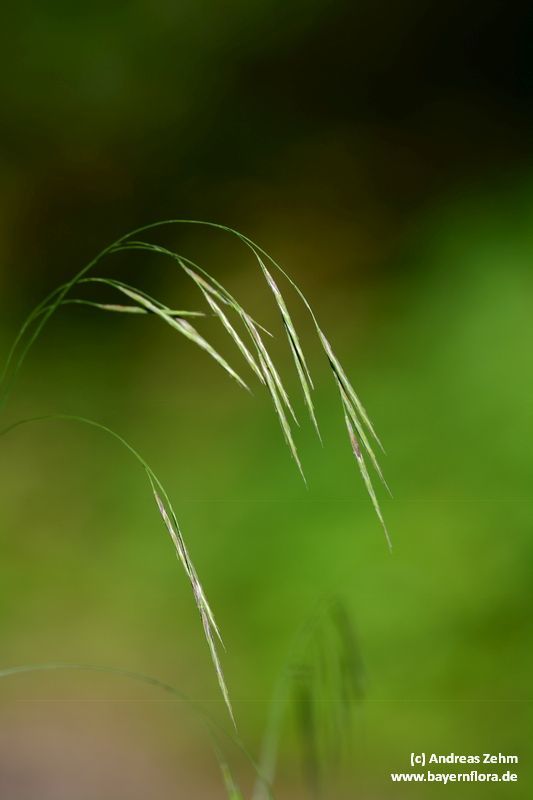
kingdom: Plantae
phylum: Tracheophyta
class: Liliopsida
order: Poales
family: Poaceae
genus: Bromus
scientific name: Bromus ramosus
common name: Hairy brome
